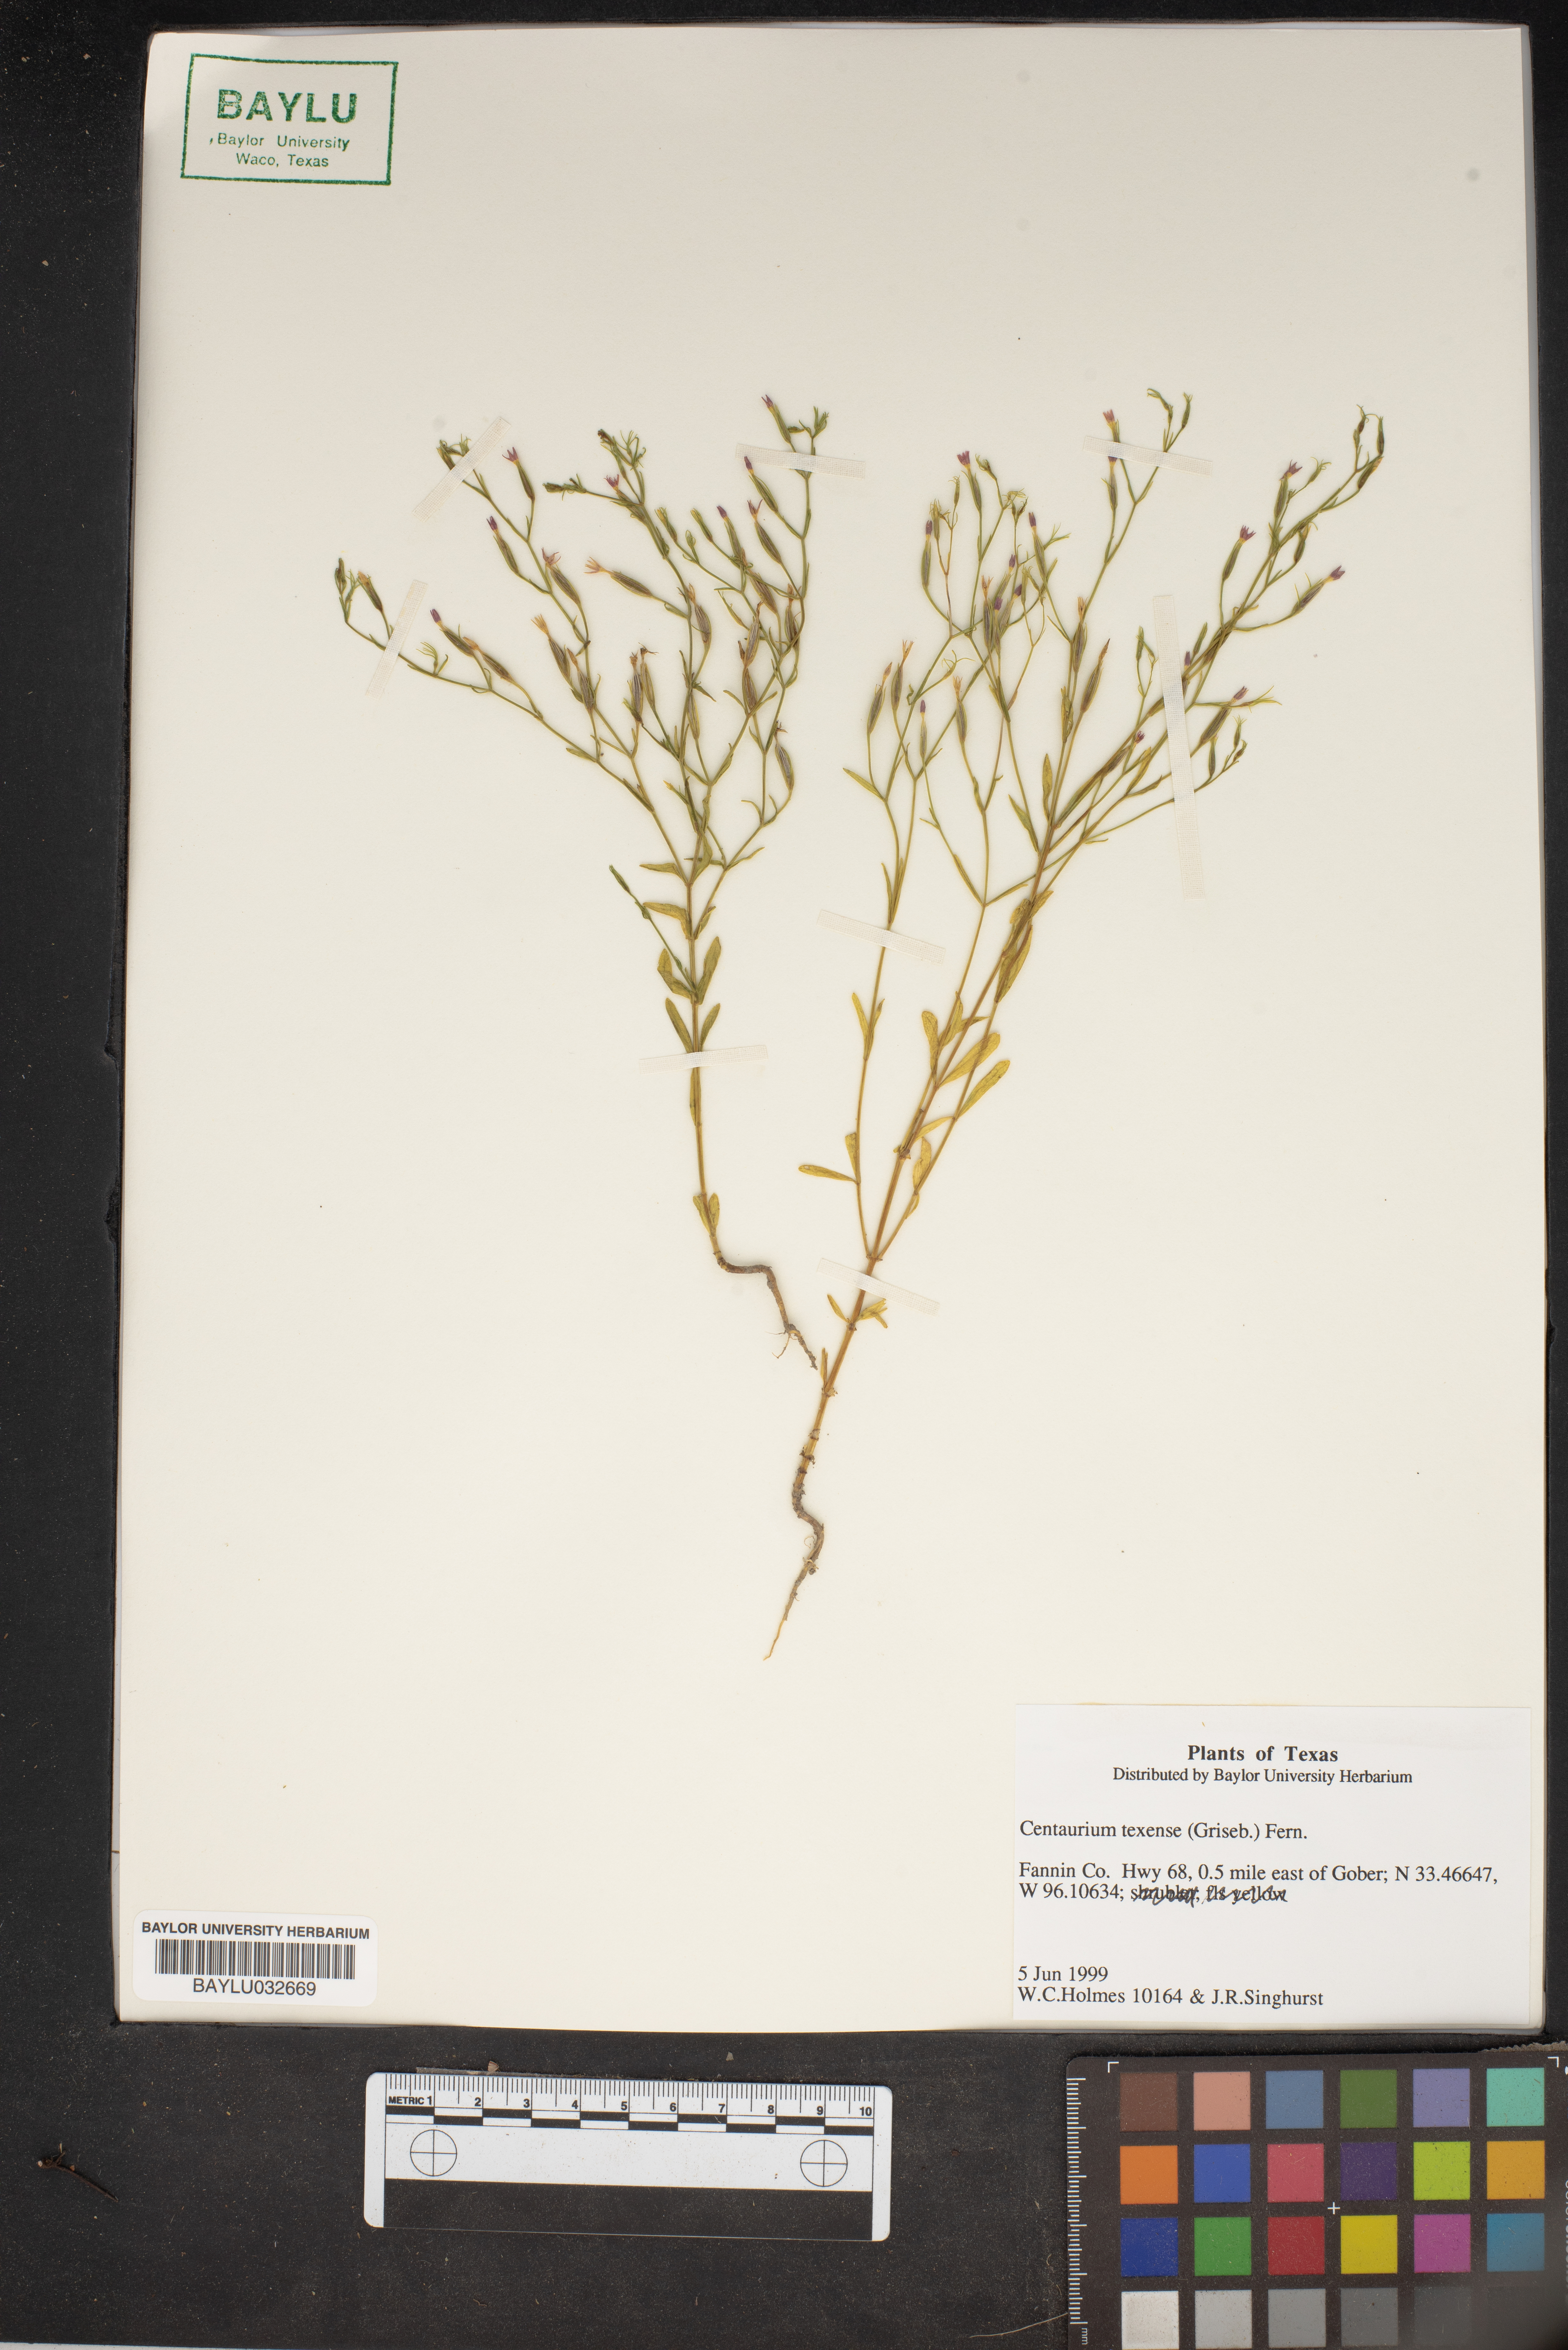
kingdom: Plantae
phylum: Tracheophyta
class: Magnoliopsida
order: Gentianales
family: Gentianaceae
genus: Centaurium
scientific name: Centaurium
